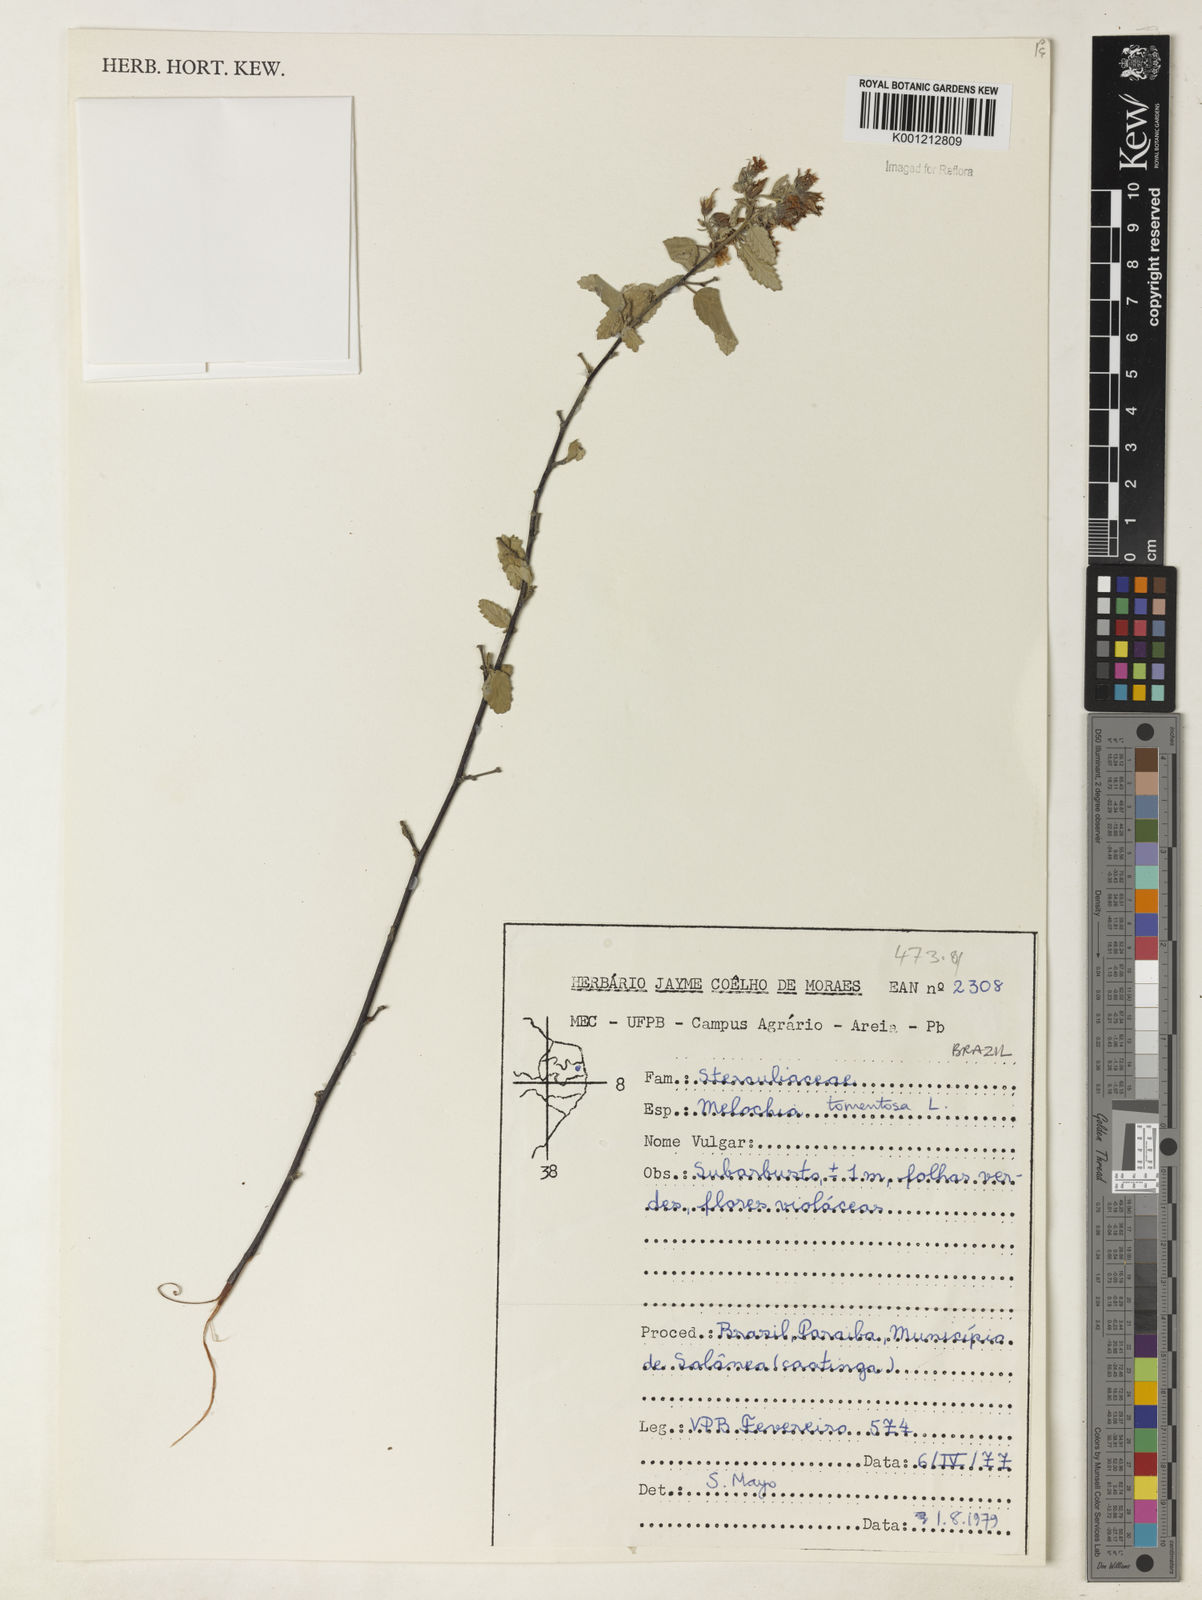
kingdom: Plantae
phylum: Tracheophyta
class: Magnoliopsida
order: Malvales
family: Malvaceae
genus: Melochia
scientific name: Melochia tomentosa
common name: Black torch
